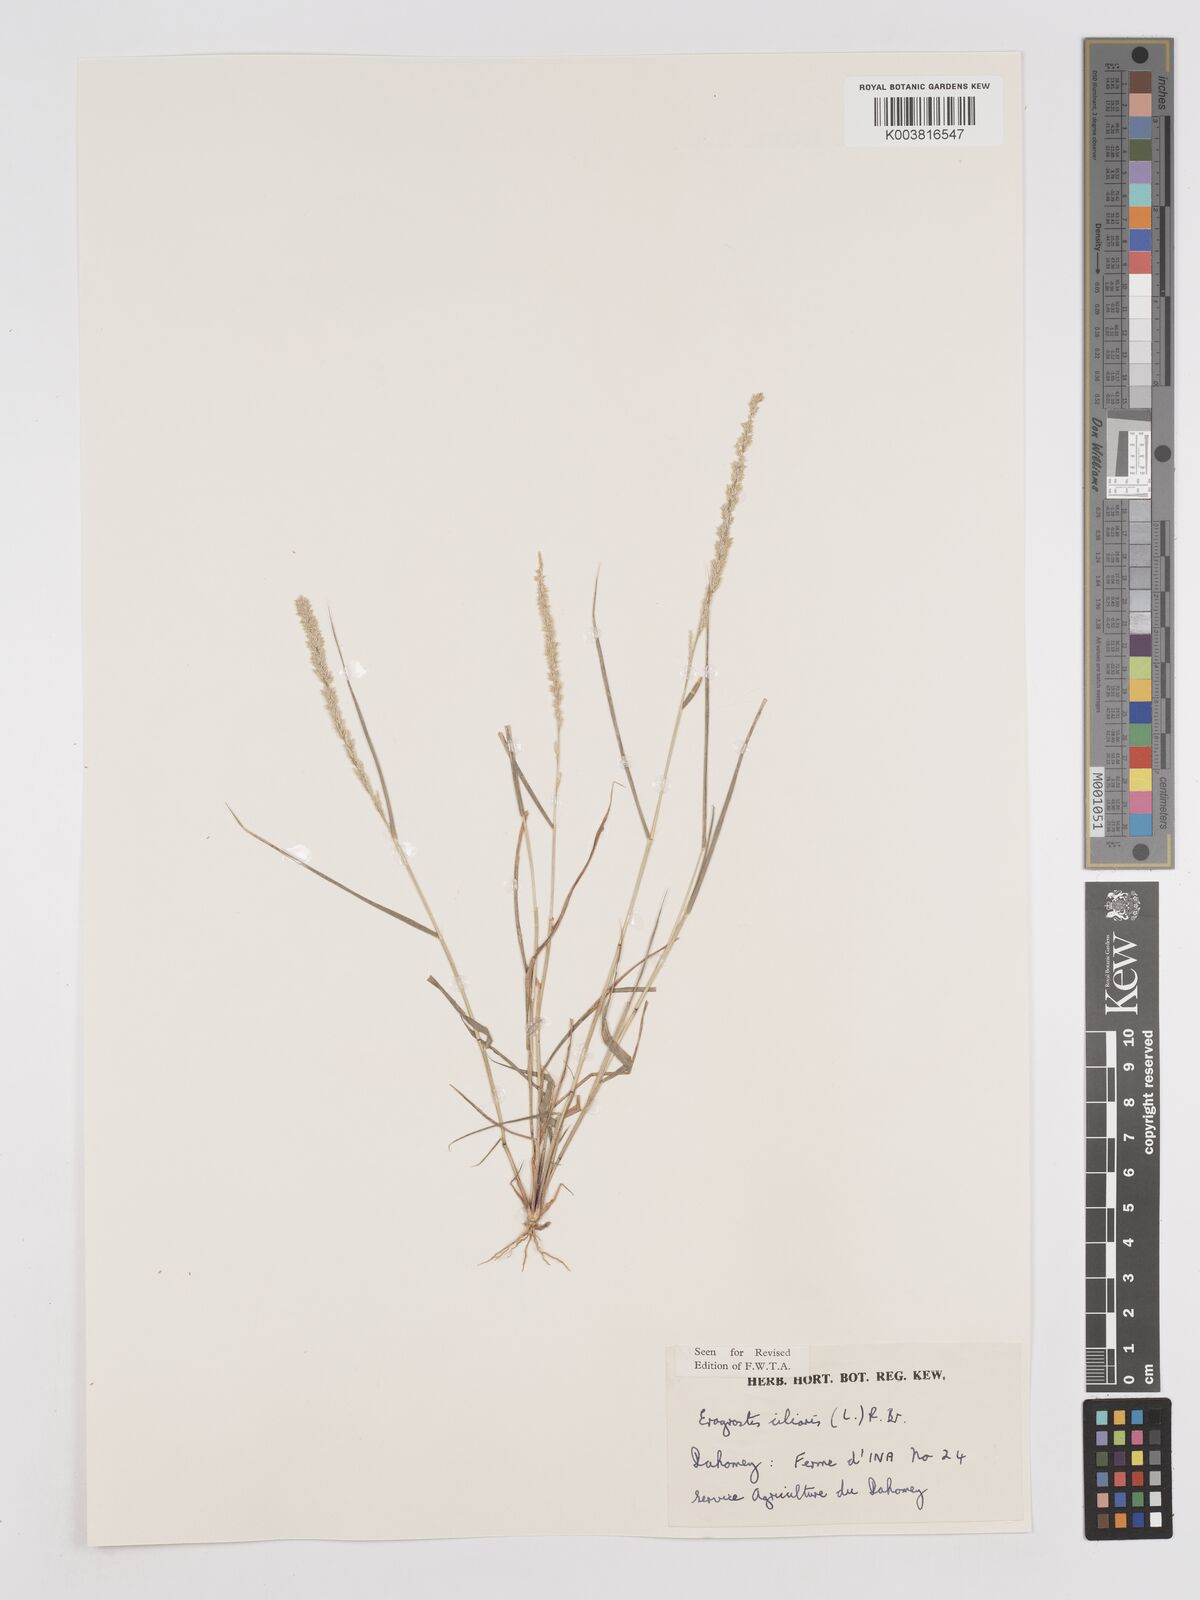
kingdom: Plantae
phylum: Tracheophyta
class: Liliopsida
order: Poales
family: Poaceae
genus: Eragrostis
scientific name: Eragrostis ciliaris
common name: Gophertail lovegrass
